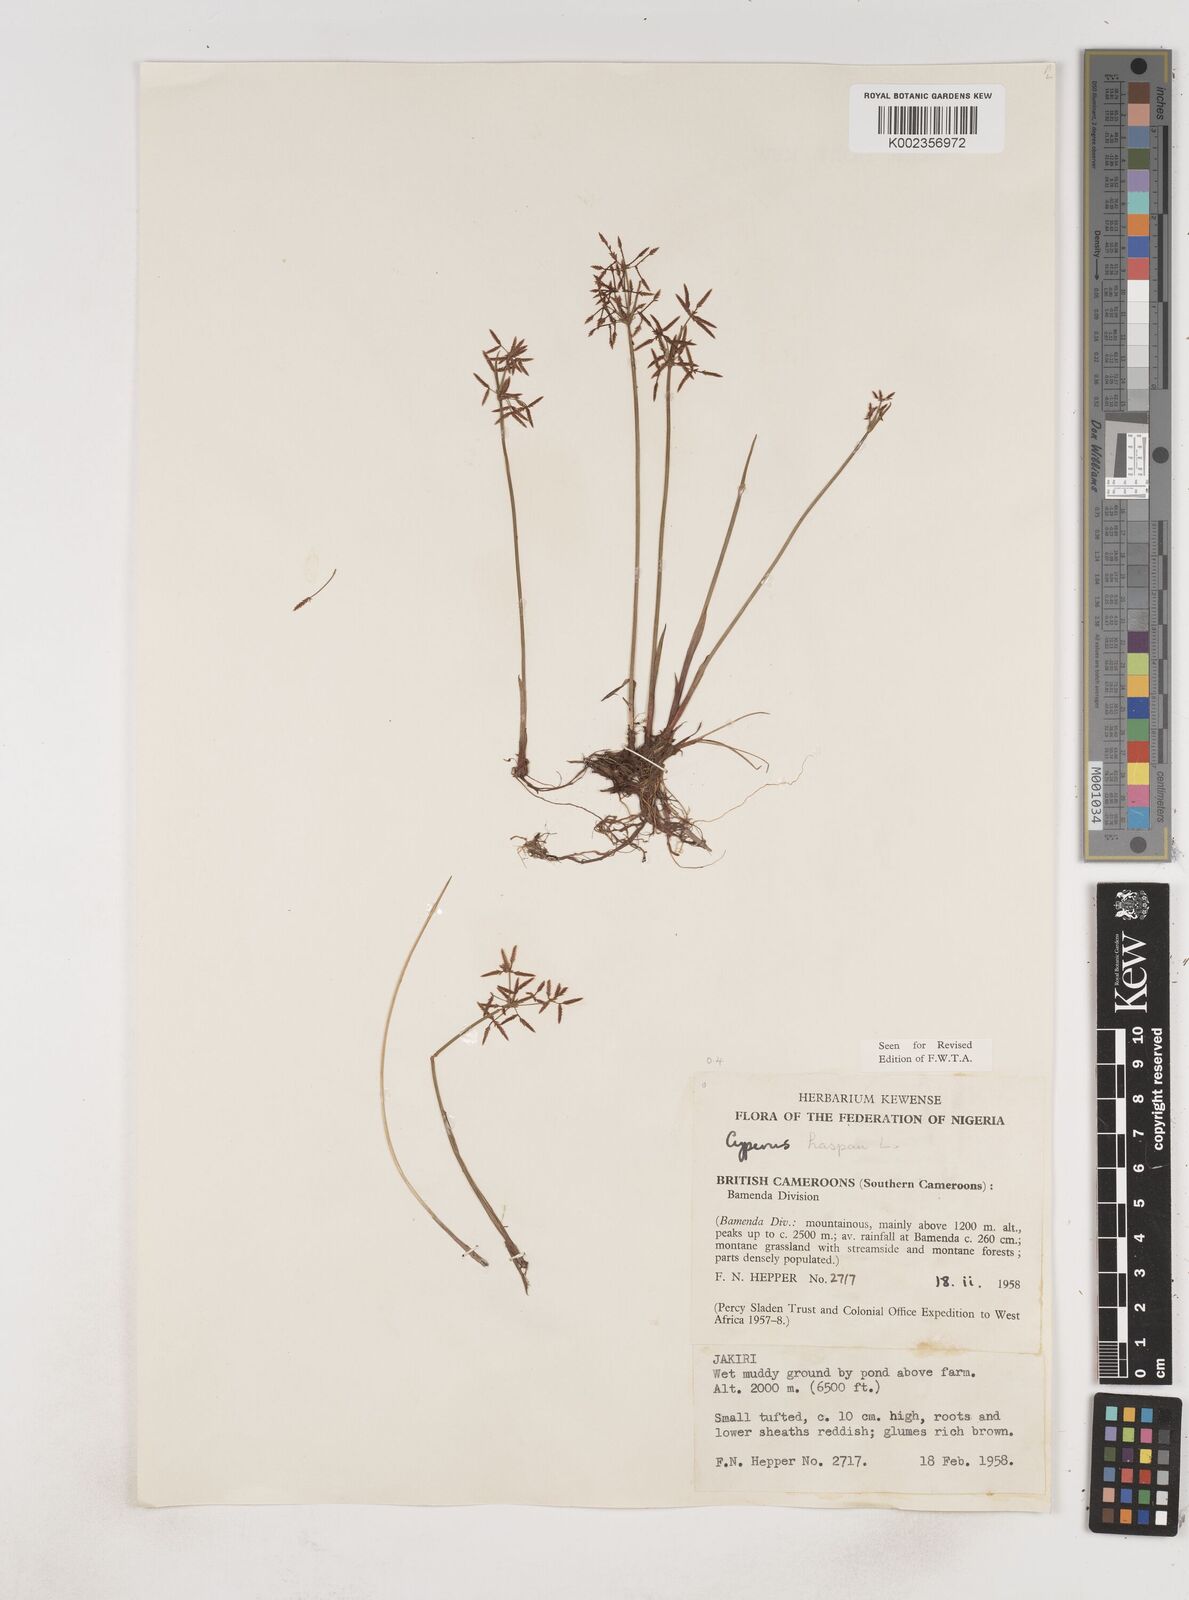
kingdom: Plantae
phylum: Tracheophyta
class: Liliopsida
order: Poales
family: Cyperaceae
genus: Cyperus
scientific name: Cyperus haspan
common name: Haspan flatsedge
